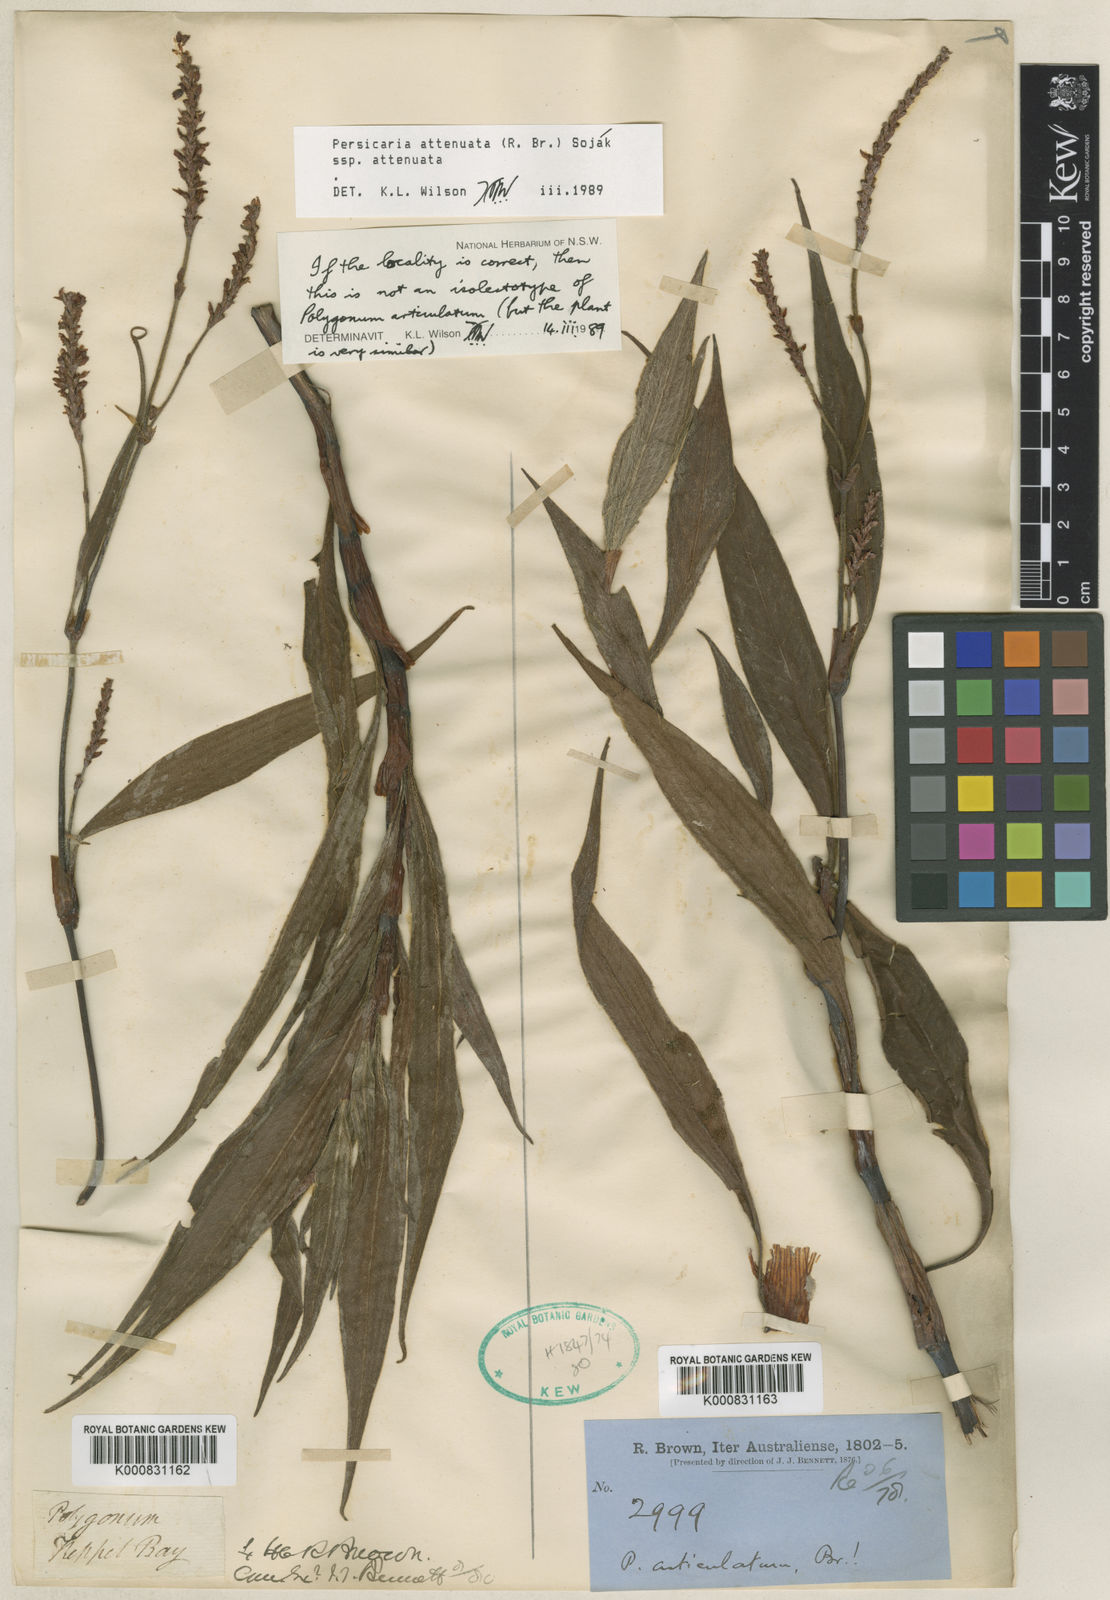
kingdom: Plantae
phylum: Tracheophyta
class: Magnoliopsida
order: Caryophyllales
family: Polygonaceae
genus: Persicaria
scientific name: Persicaria
